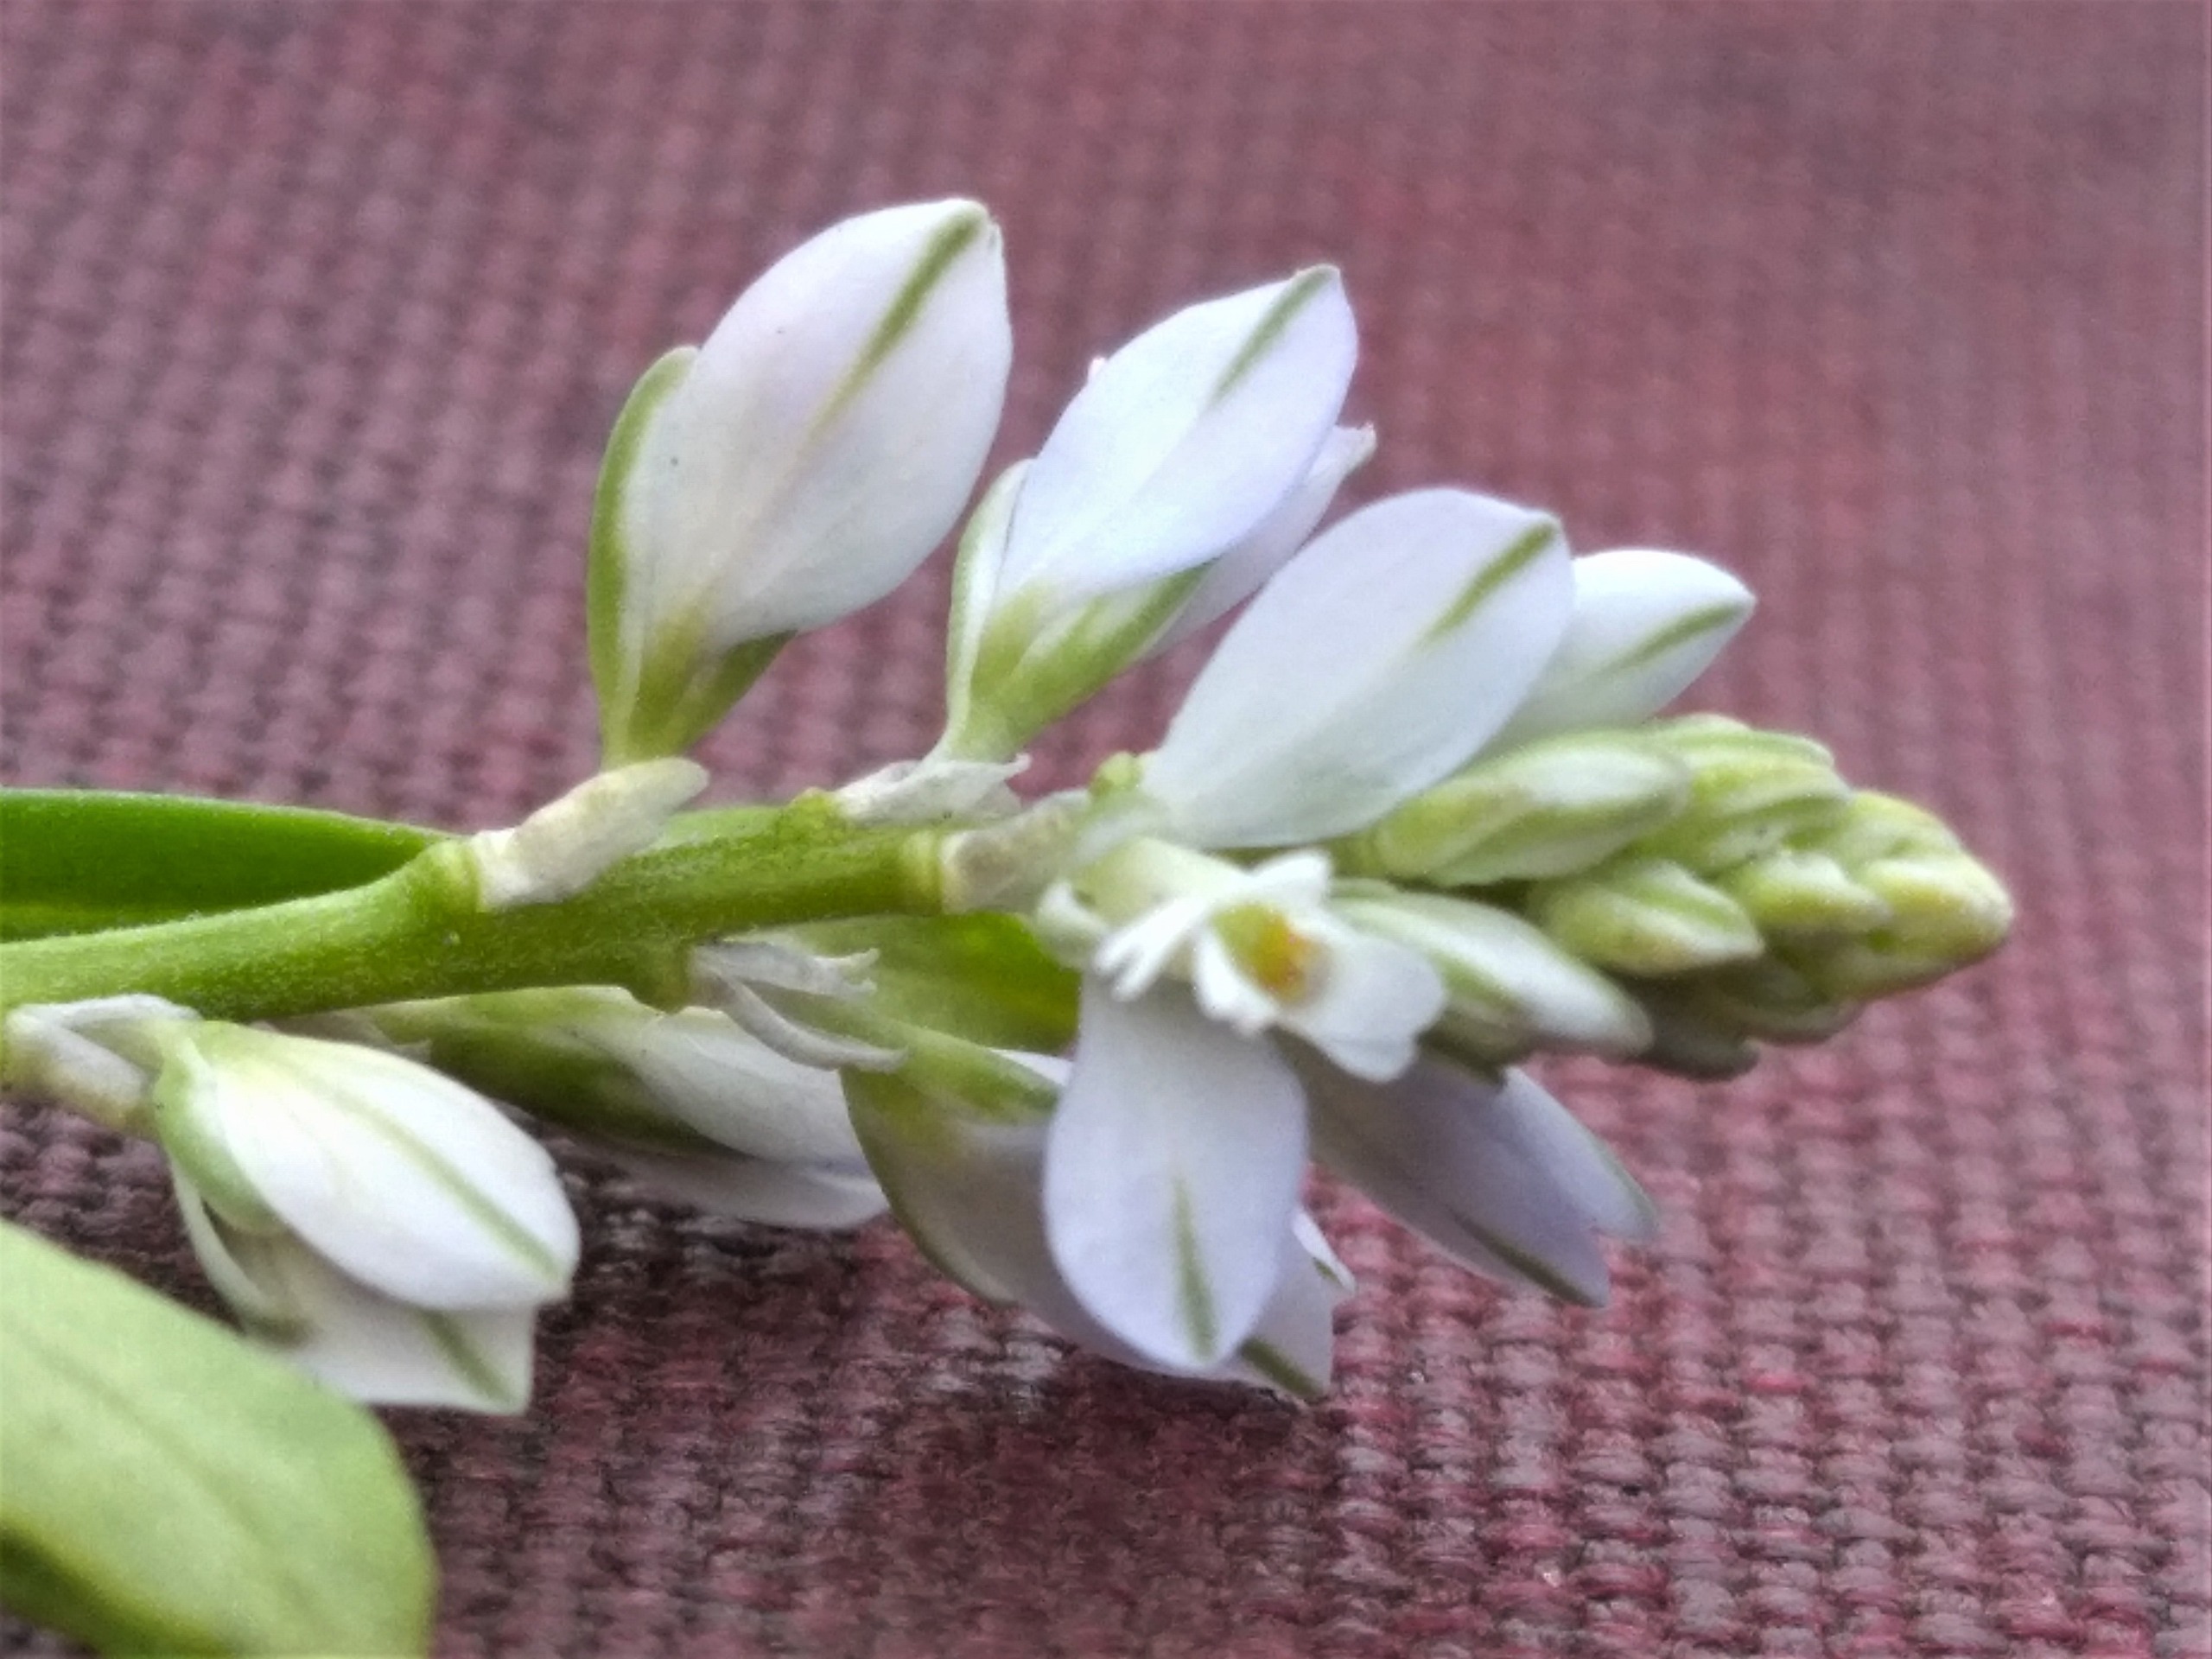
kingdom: Plantae
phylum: Tracheophyta
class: Magnoliopsida
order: Fabales
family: Polygalaceae
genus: Polygala
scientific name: Polygala amarella
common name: Bitter mælkeurt
